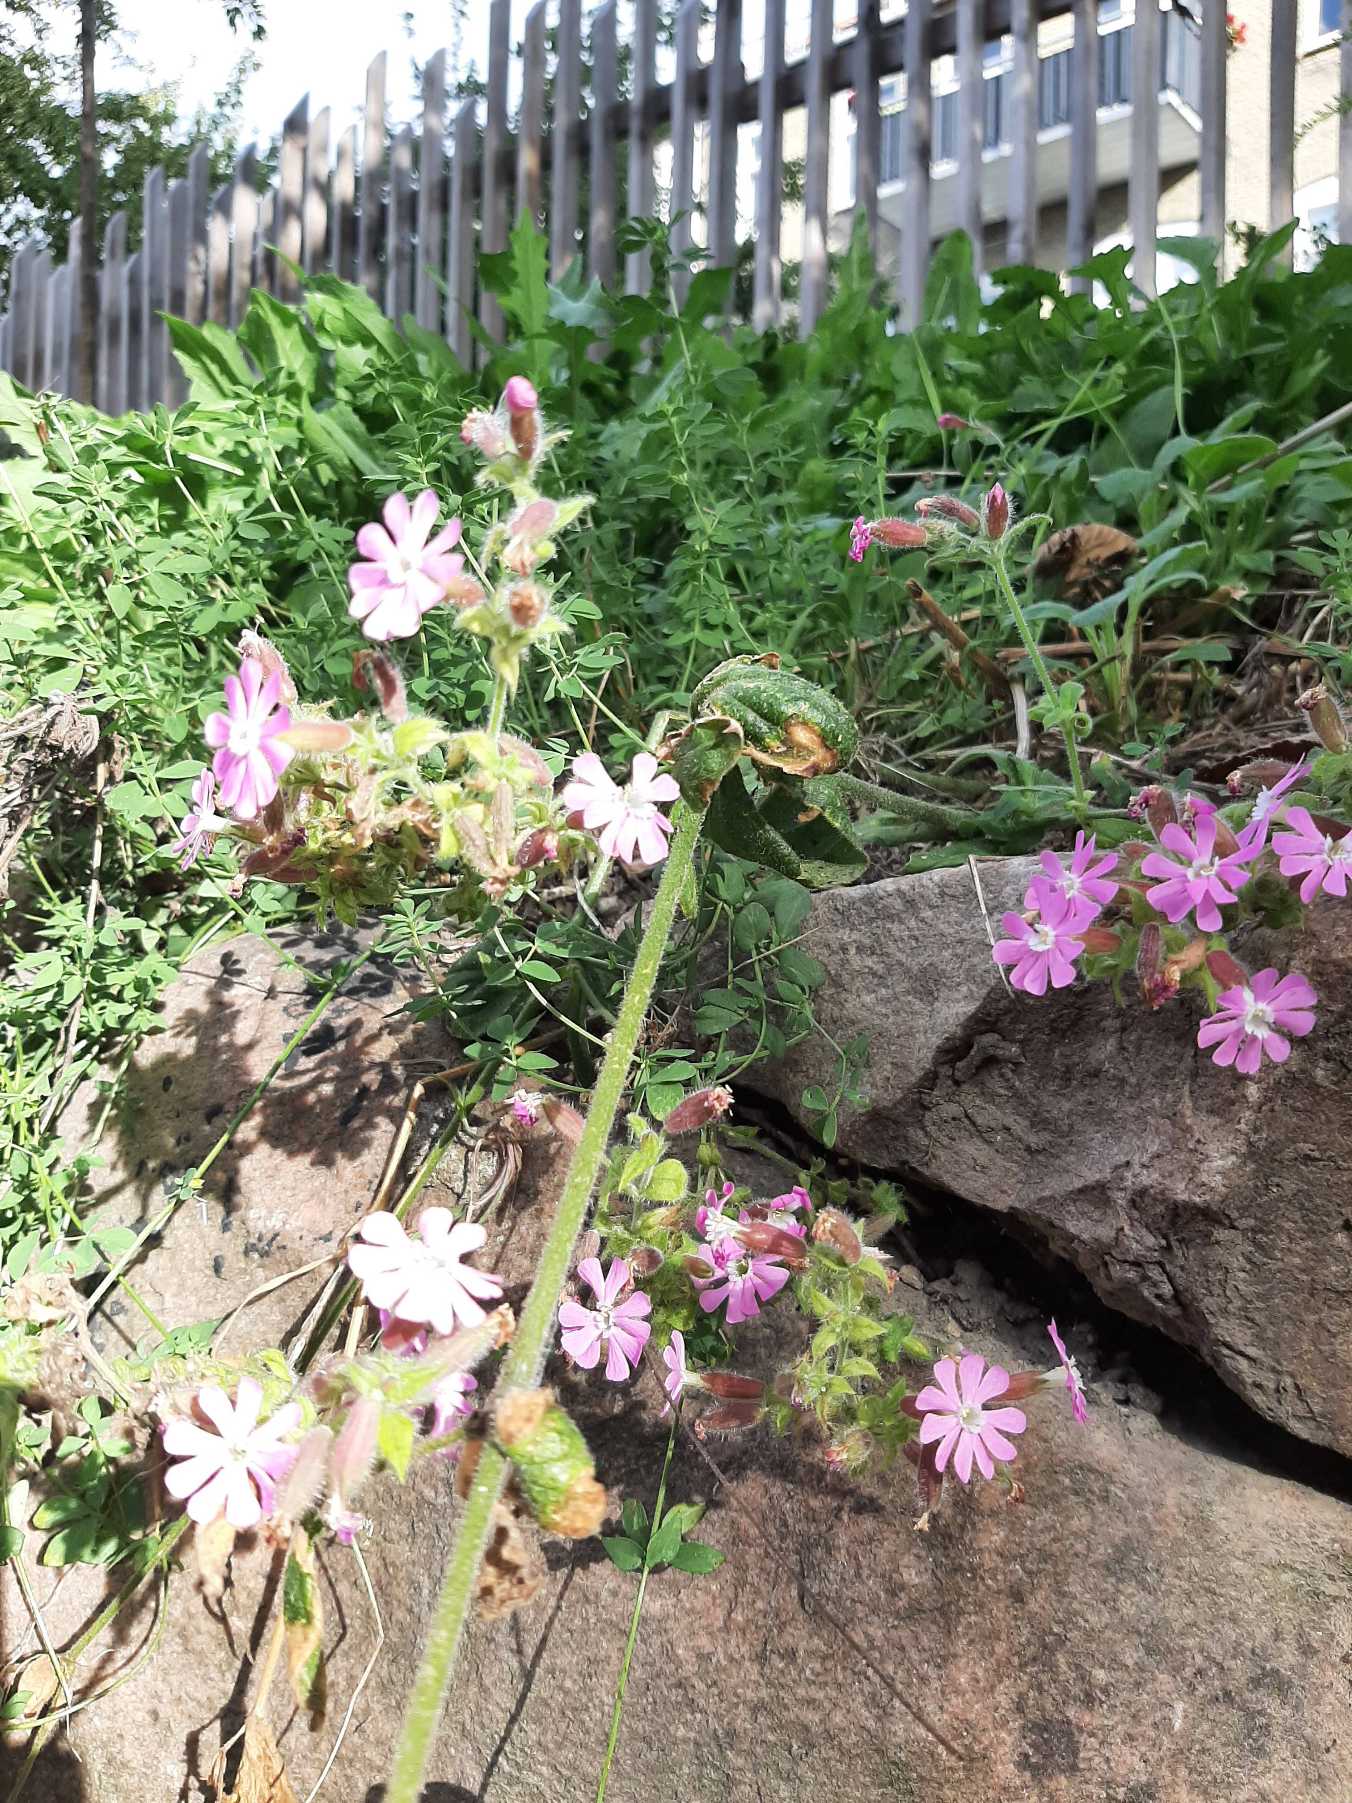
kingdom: Plantae
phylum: Tracheophyta
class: Magnoliopsida
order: Caryophyllales
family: Caryophyllaceae
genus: Silene
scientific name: Silene dioica
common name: Dagpragtstjerne
